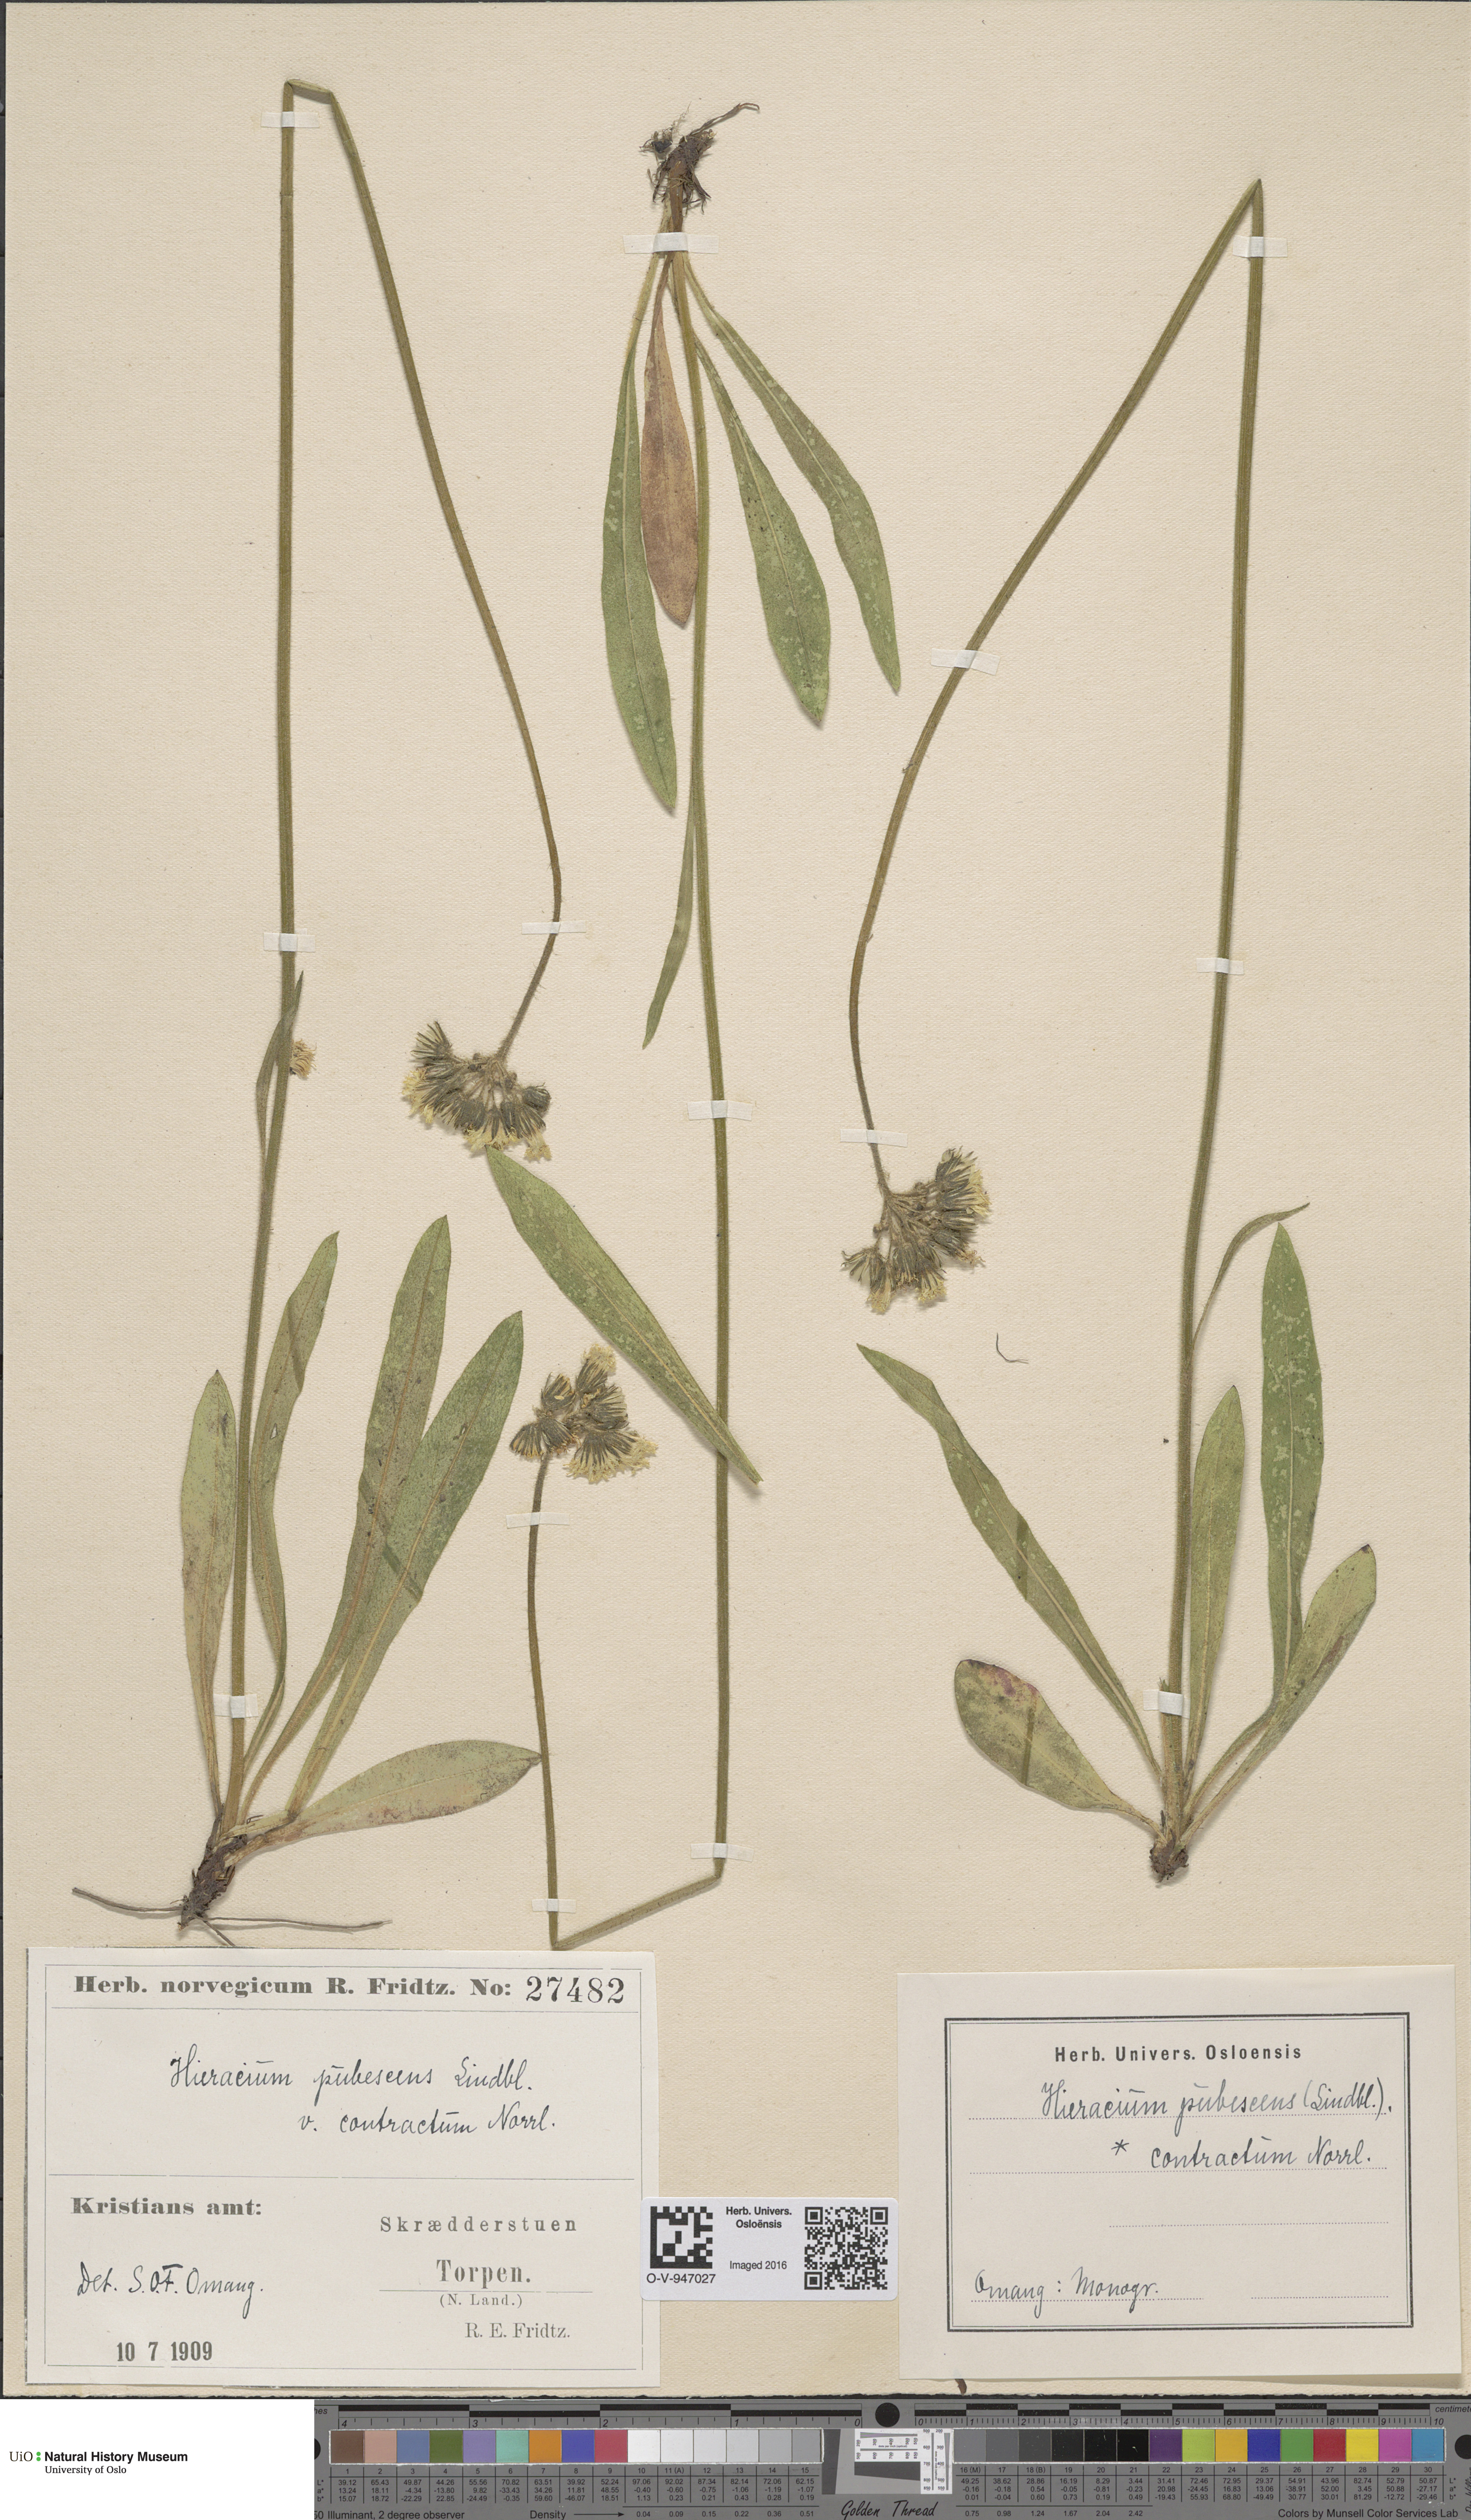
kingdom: Plantae
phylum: Tracheophyta
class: Magnoliopsida
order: Asterales
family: Asteraceae
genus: Pilosella
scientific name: Pilosella cymosa
